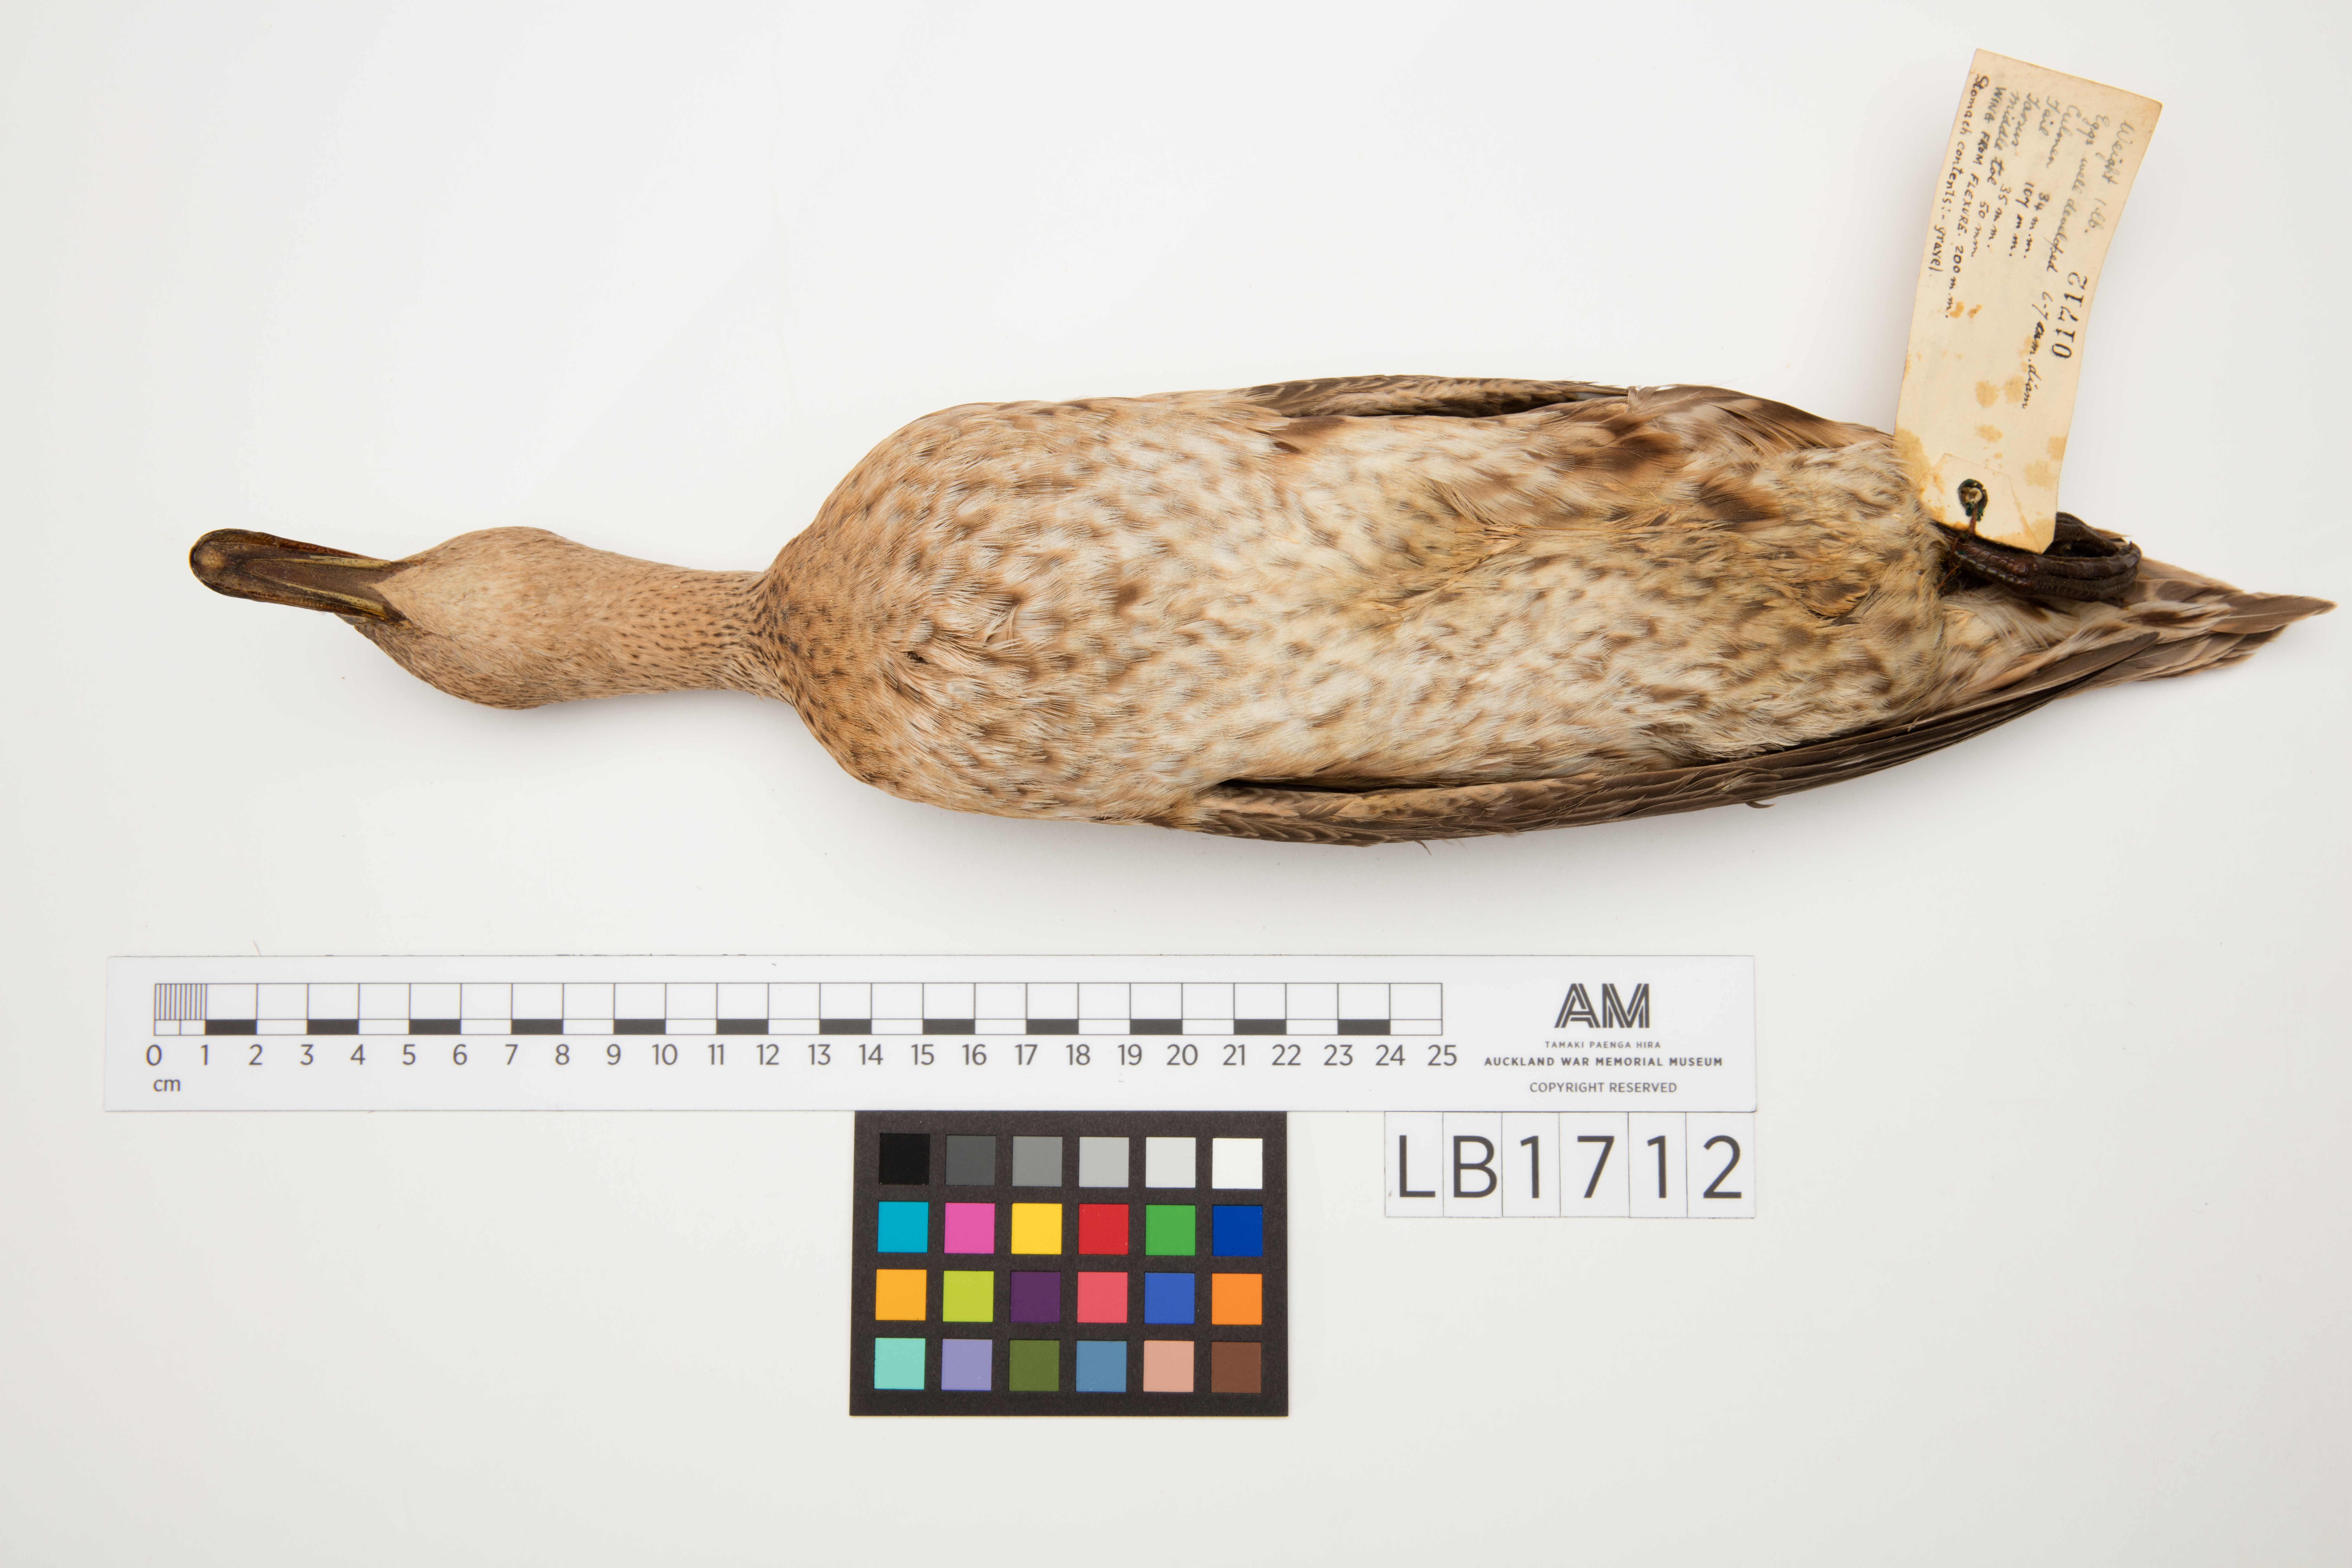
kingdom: Animalia
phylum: Chordata
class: Aves
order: Anseriformes
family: Anatidae
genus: Anas
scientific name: Anas eatoni
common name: Eaton's pintail
